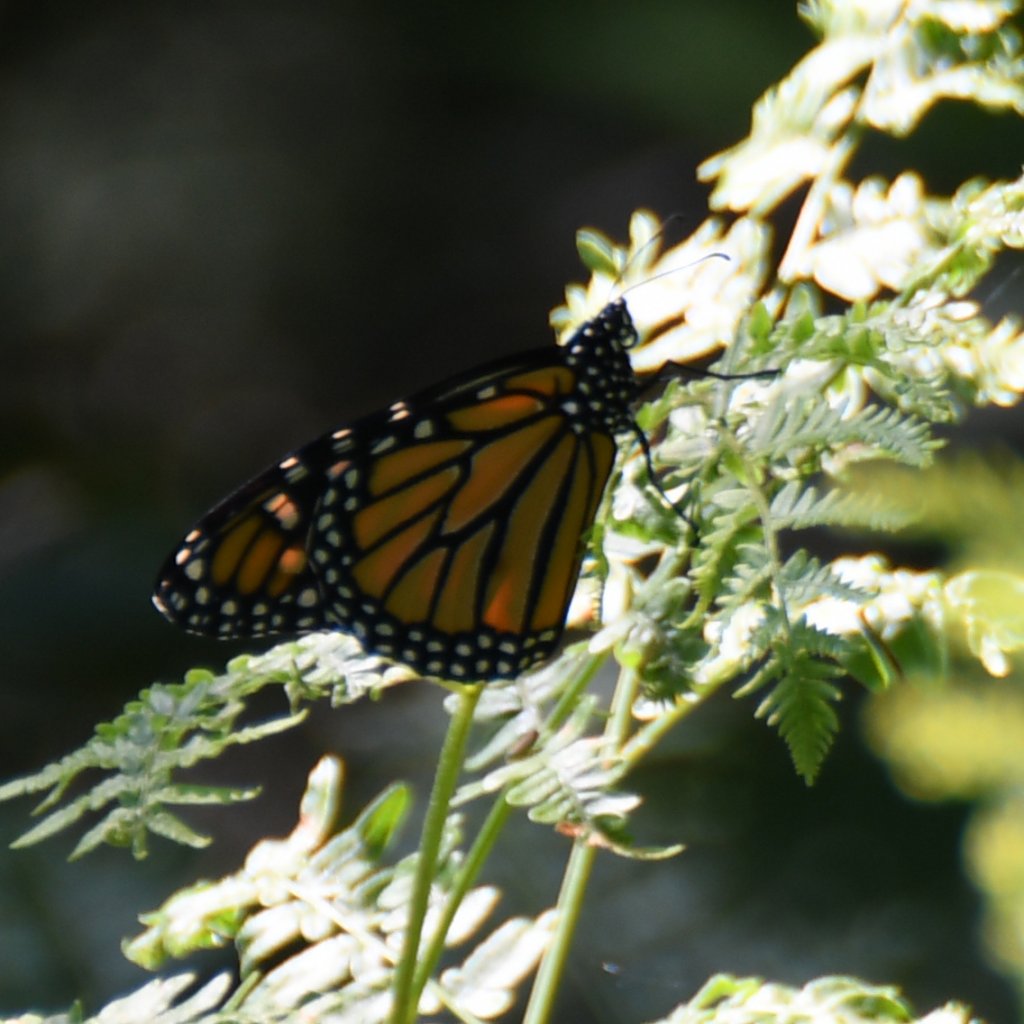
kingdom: Animalia
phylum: Arthropoda
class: Insecta
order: Lepidoptera
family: Nymphalidae
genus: Danaus
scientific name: Danaus plexippus
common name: Monarch
